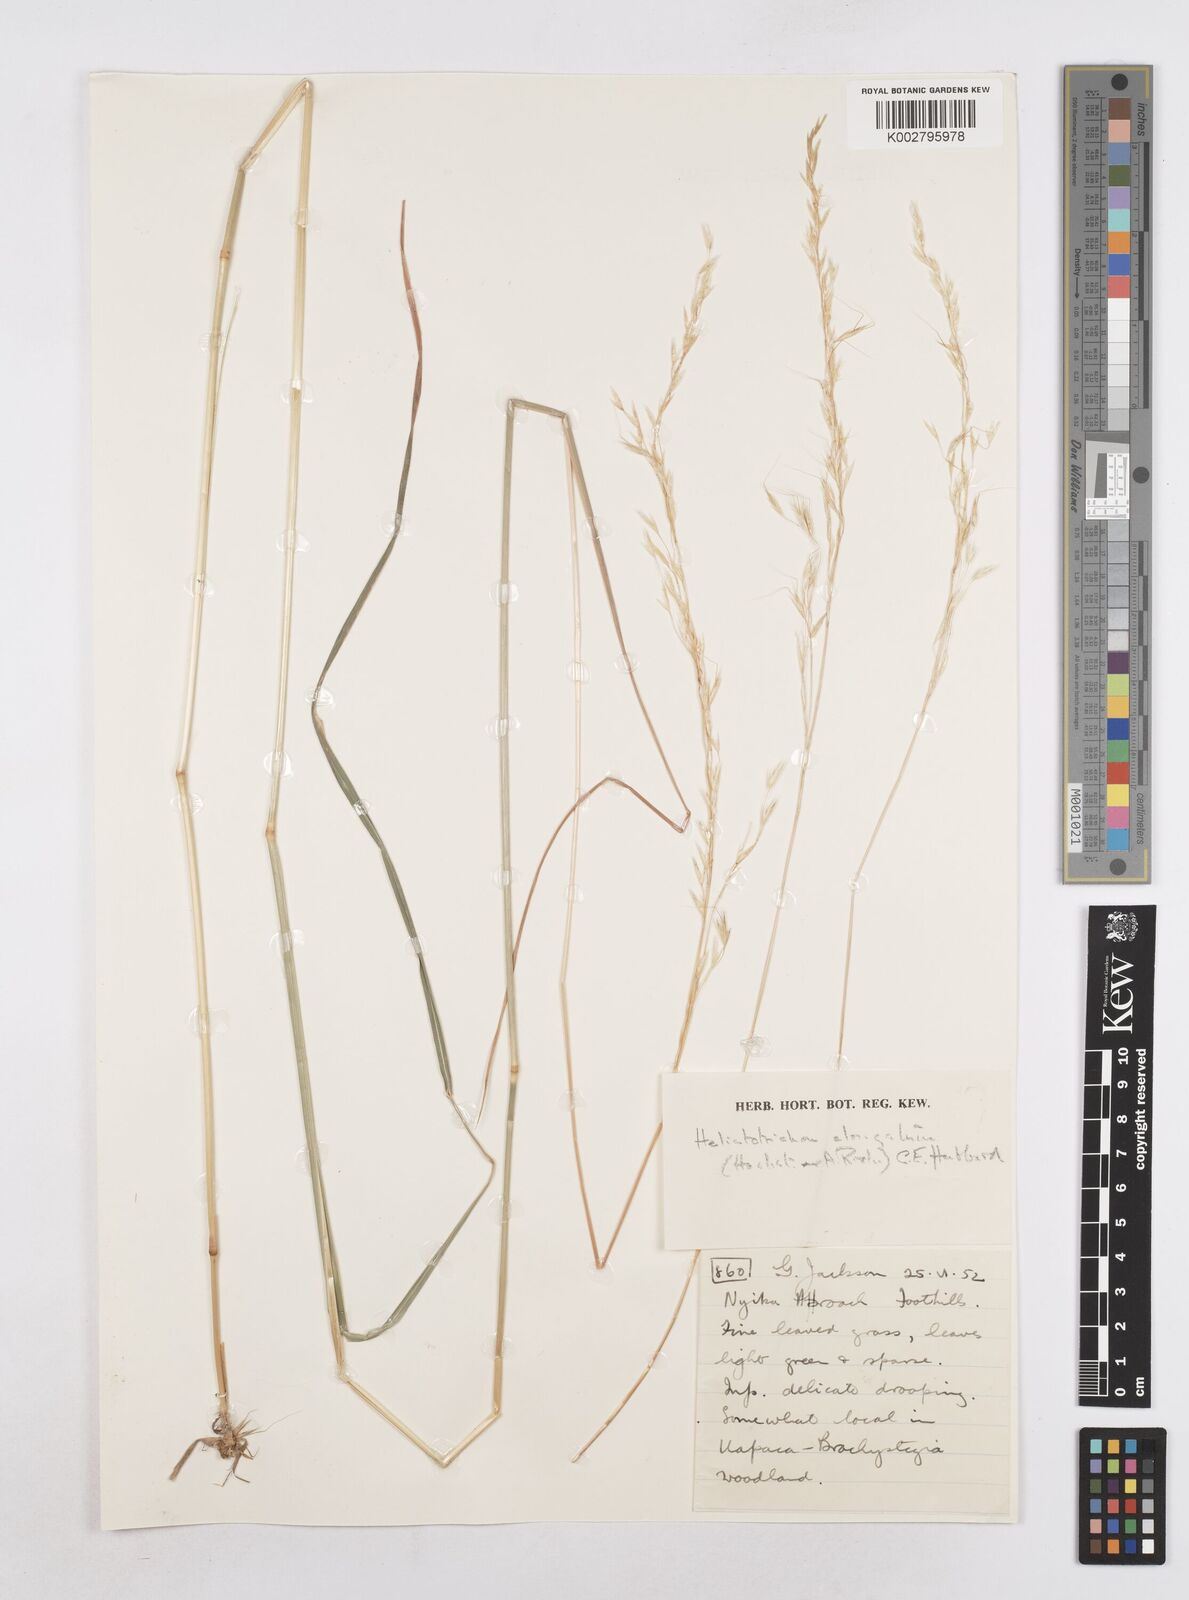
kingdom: Plantae
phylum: Tracheophyta
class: Liliopsida
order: Poales
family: Poaceae
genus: Trisetopsis
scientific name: Trisetopsis elongata
